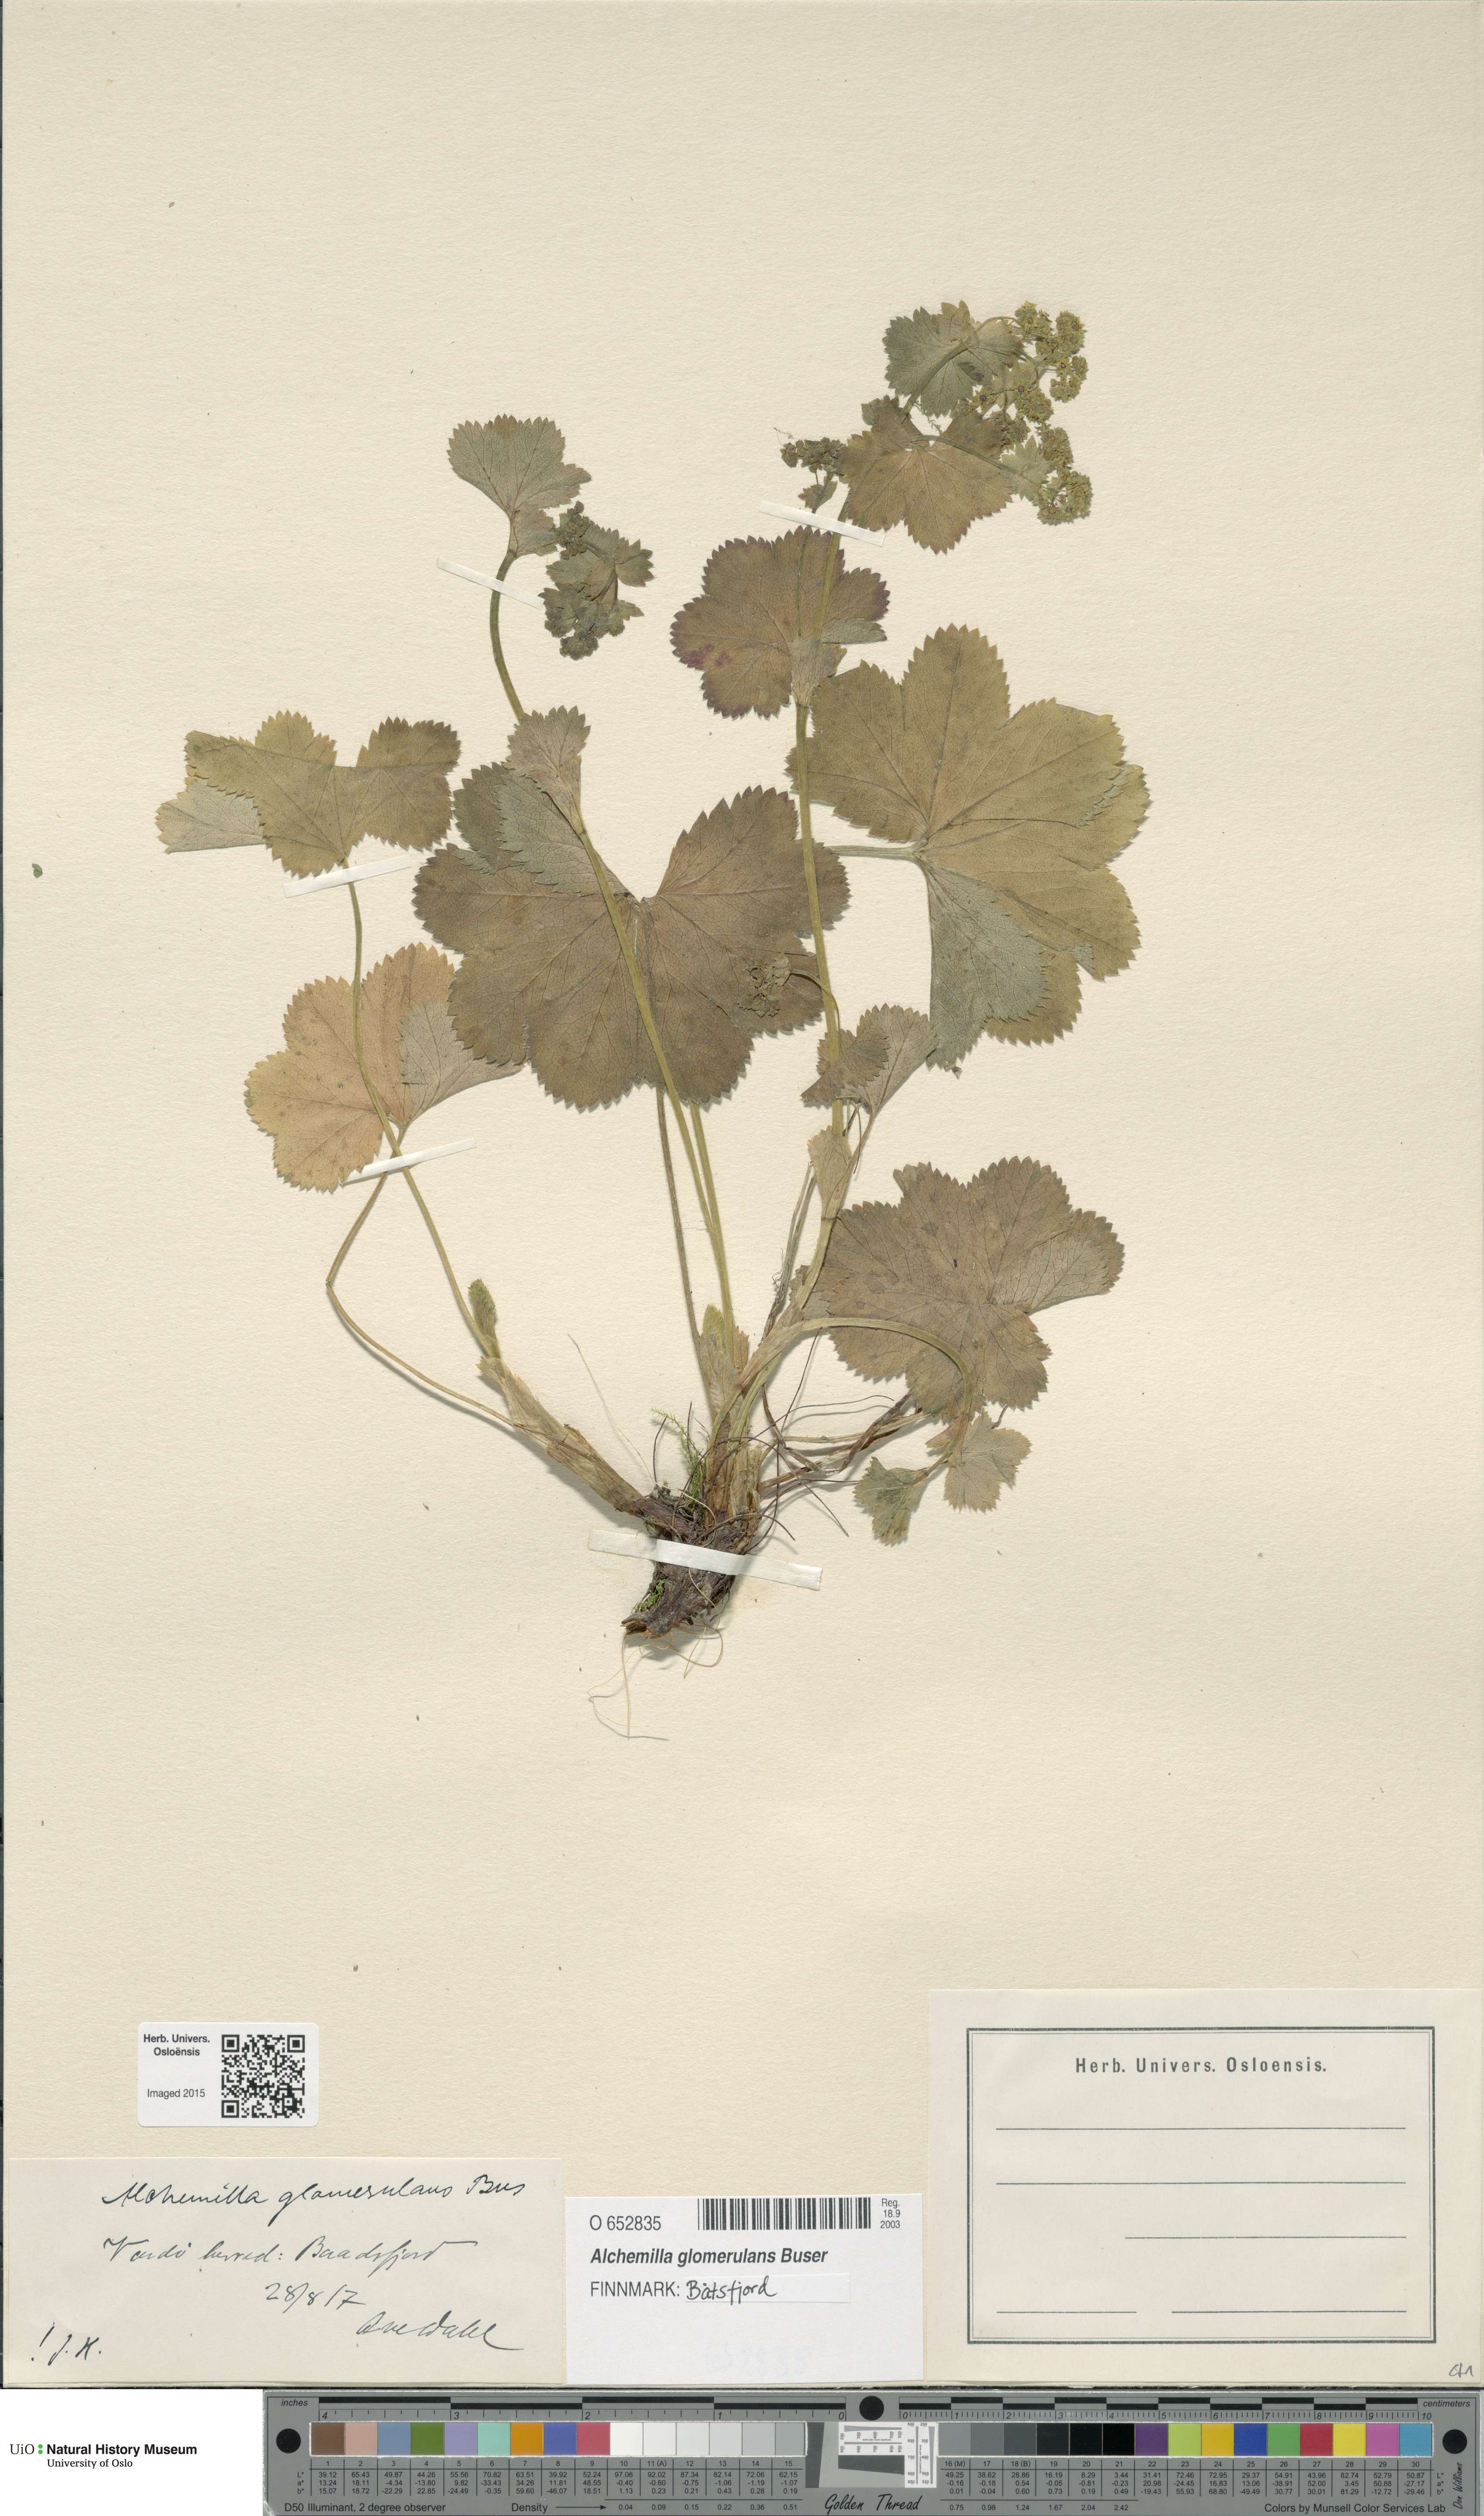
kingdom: Plantae
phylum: Tracheophyta
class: Magnoliopsida
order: Rosales
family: Rosaceae
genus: Alchemilla
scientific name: Alchemilla glomerulans
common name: Clustered lady's mantle
